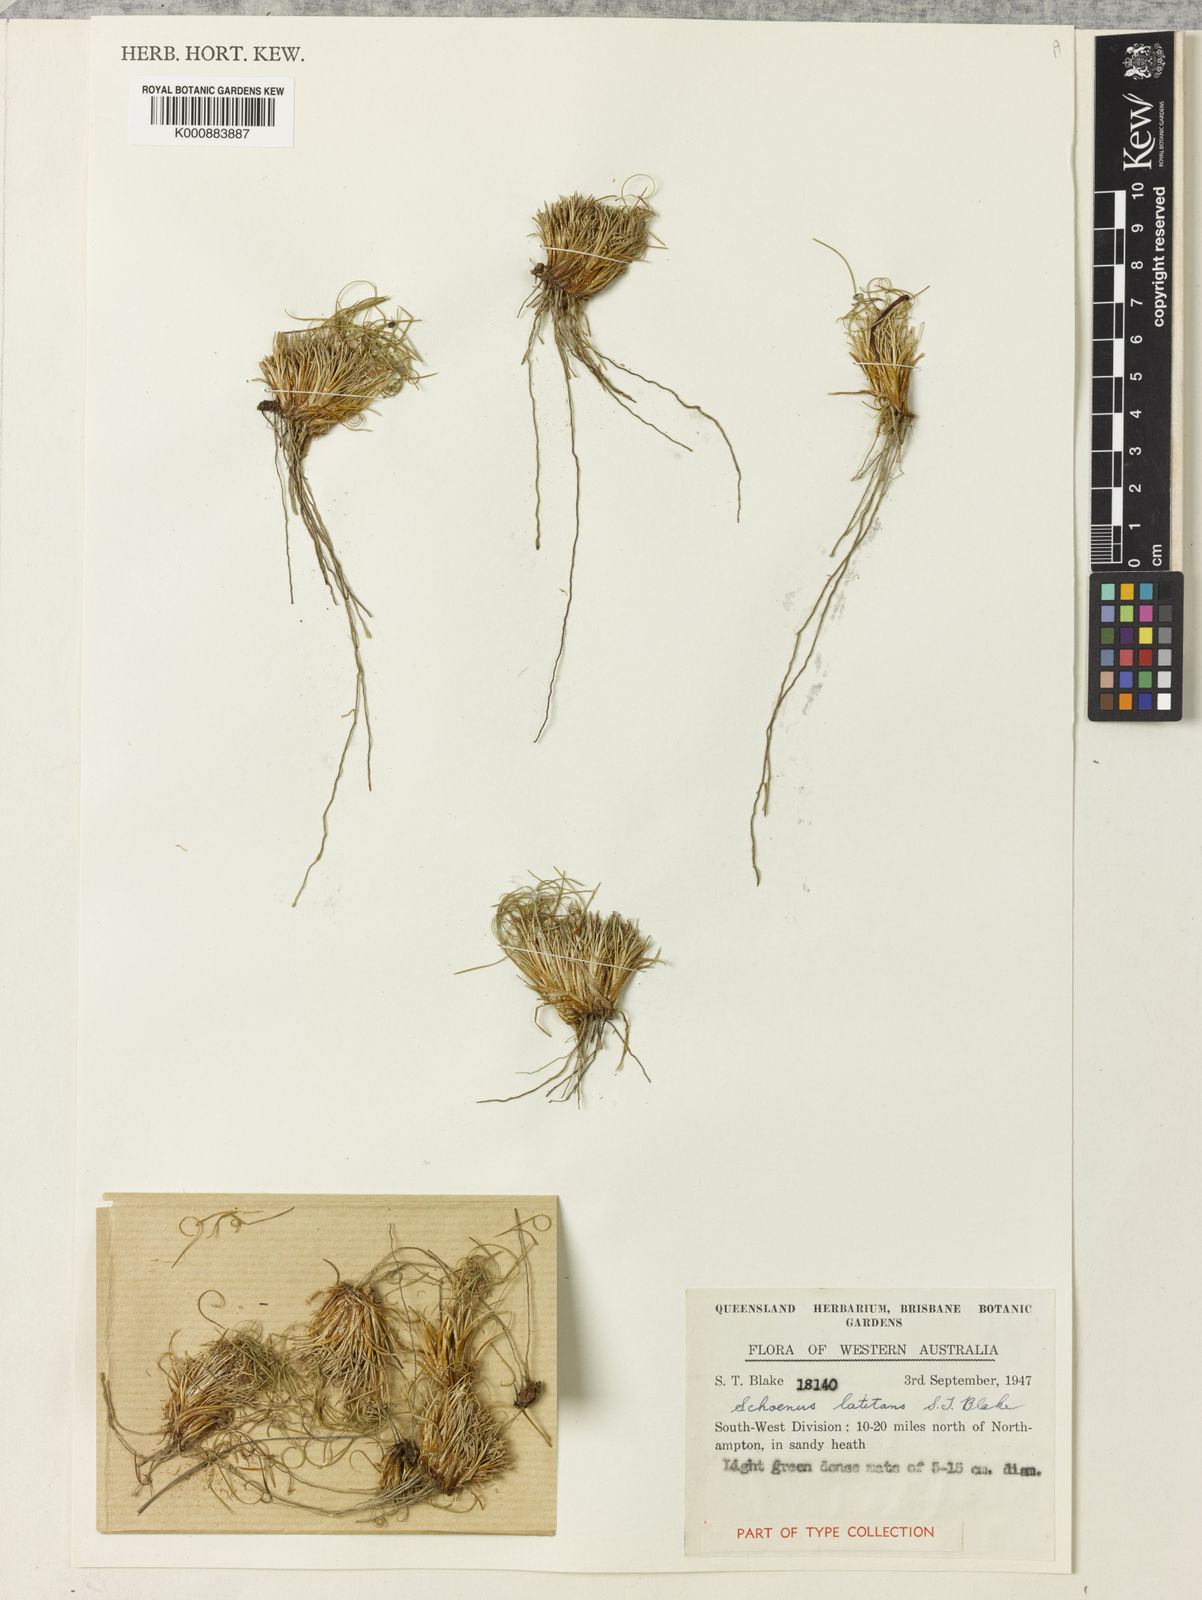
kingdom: Plantae
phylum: Tracheophyta
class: Liliopsida
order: Poales
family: Cyperaceae
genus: Schoenus
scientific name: Schoenus latitans
